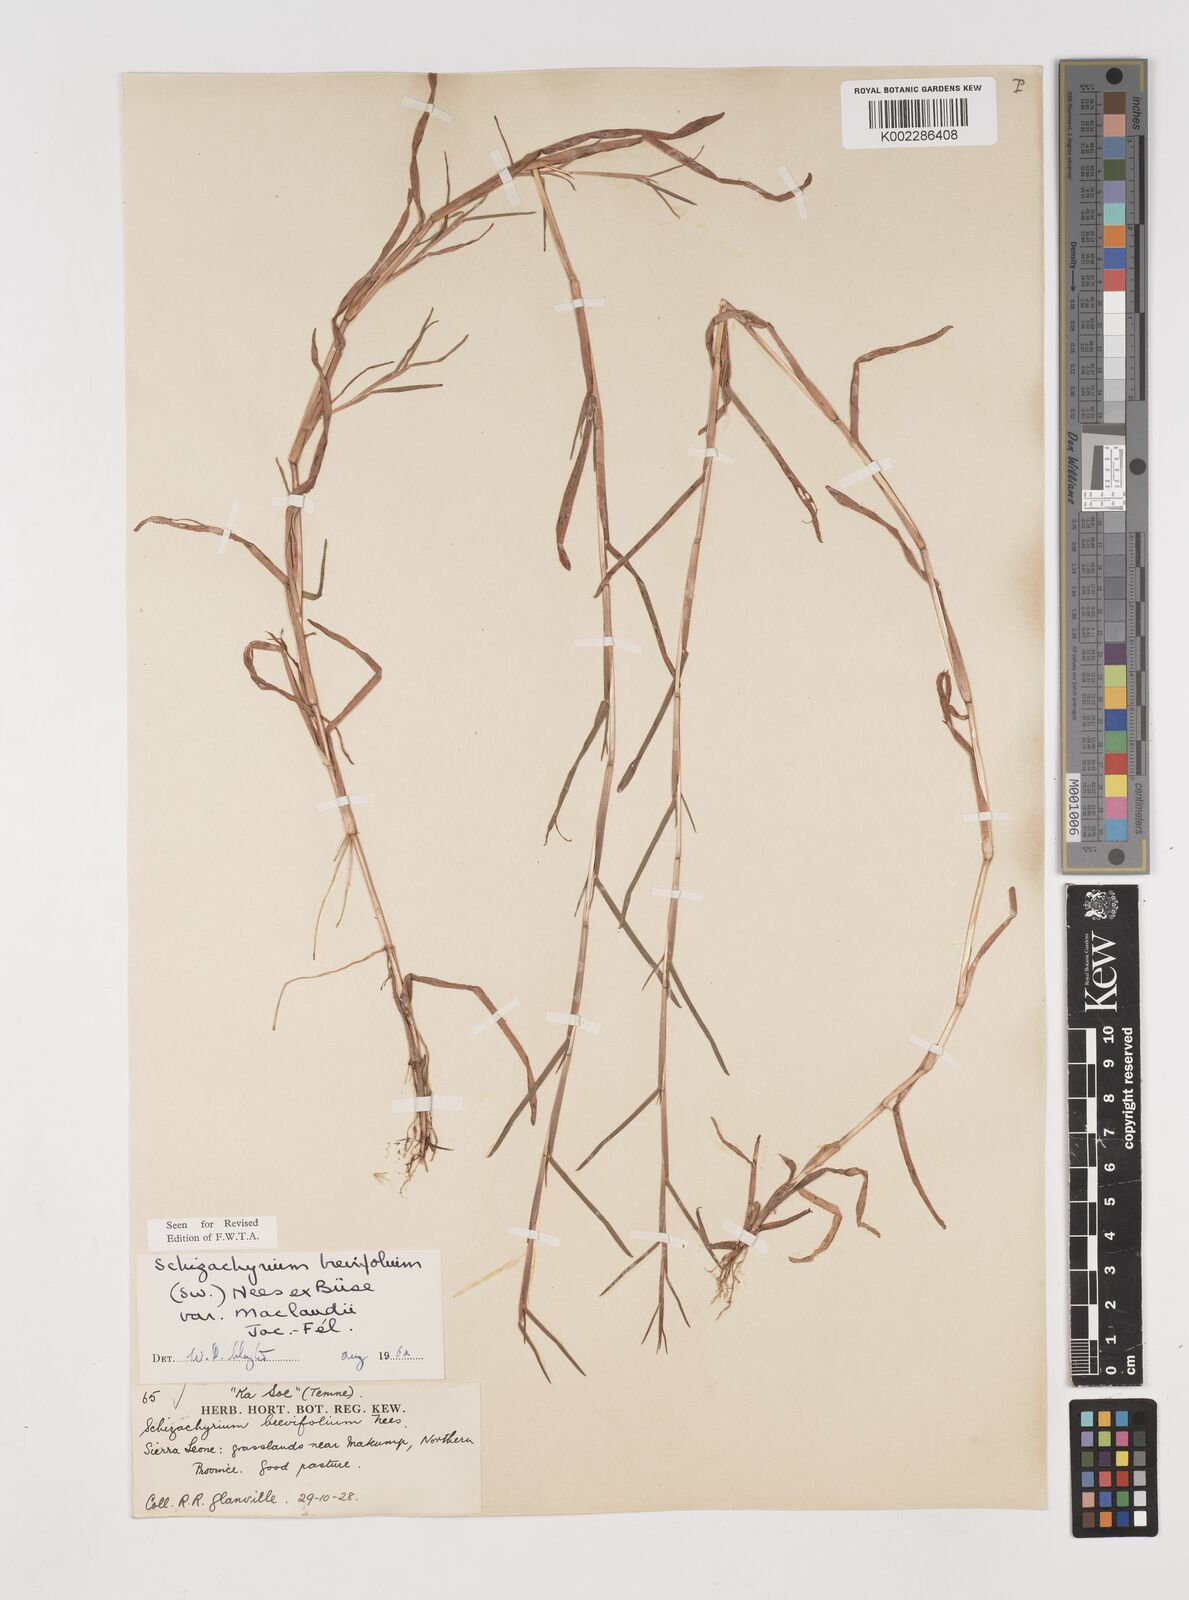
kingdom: Plantae
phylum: Tracheophyta
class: Liliopsida
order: Poales
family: Poaceae
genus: Schizachyrium
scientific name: Schizachyrium maclaudii
